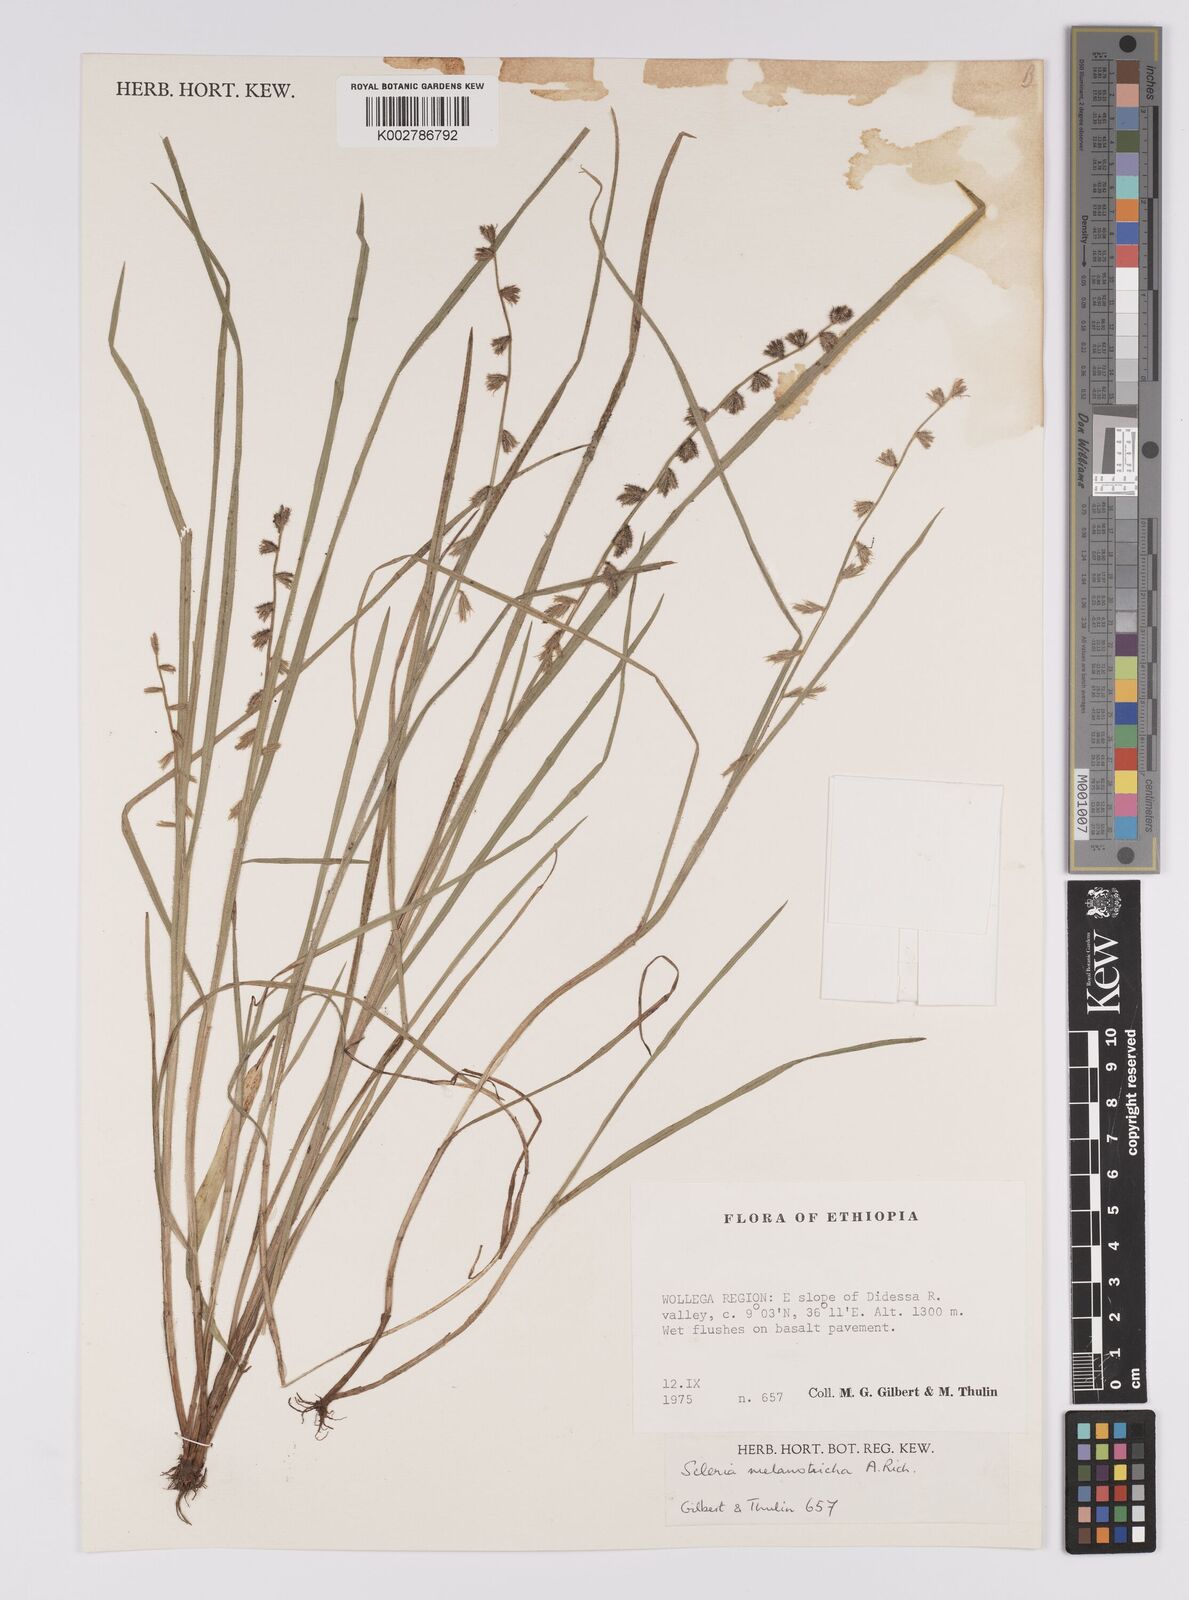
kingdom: Plantae
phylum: Tracheophyta
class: Liliopsida
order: Poales
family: Cyperaceae
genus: Scleria
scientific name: Scleria melanotricha
